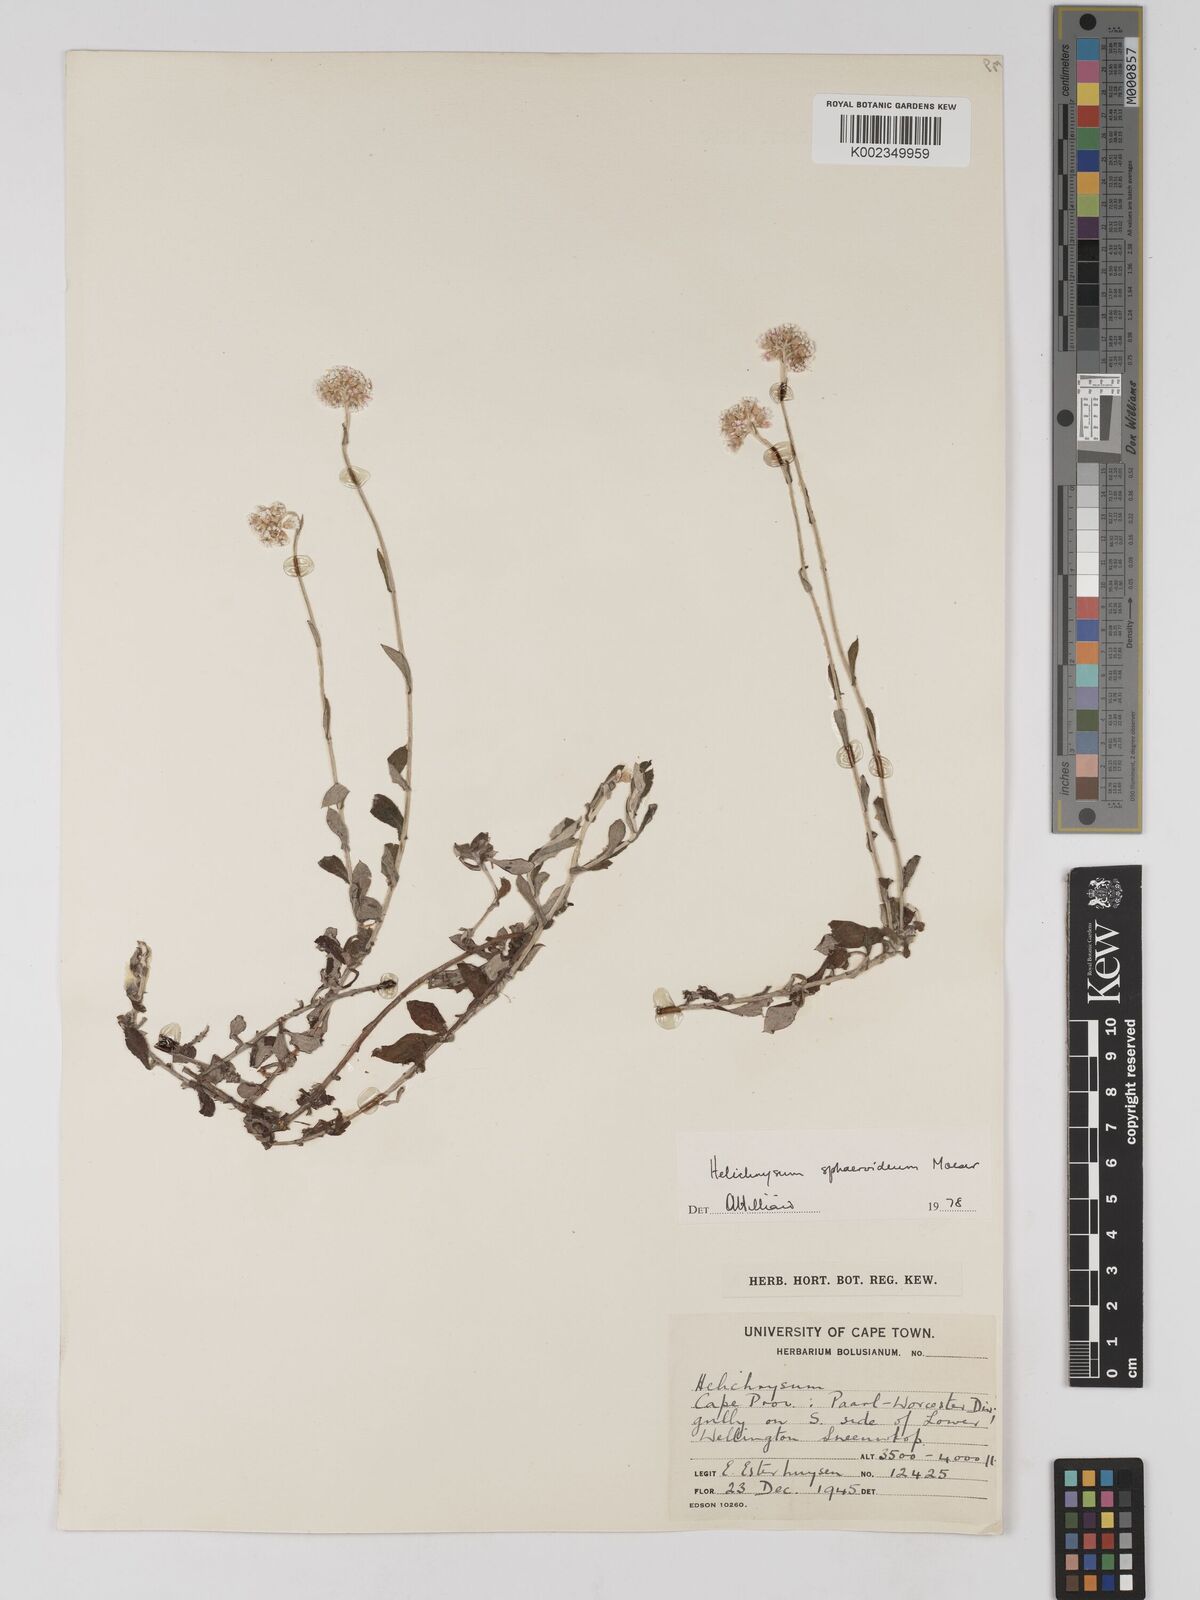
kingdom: Plantae
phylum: Tracheophyta
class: Magnoliopsida
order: Asterales
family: Asteraceae
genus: Helichrysum
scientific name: Helichrysum sphaeroideum
